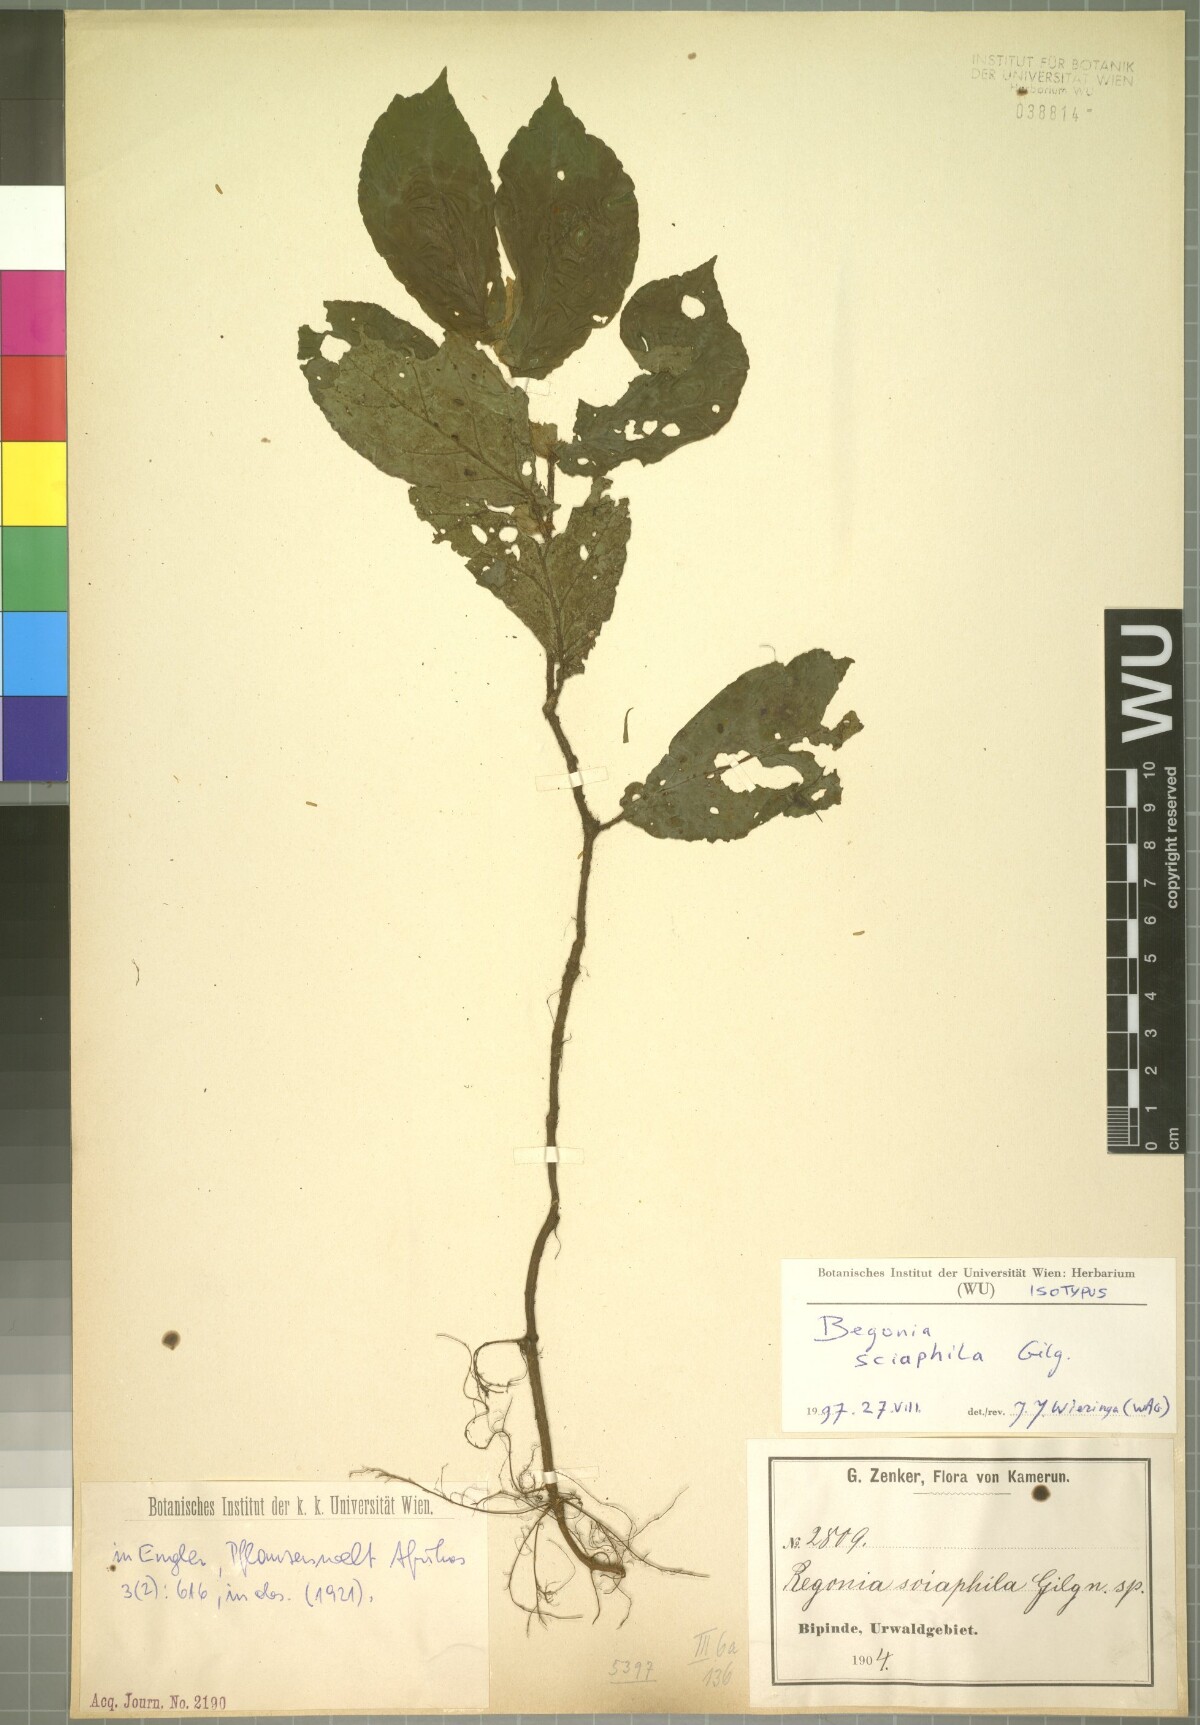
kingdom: Plantae
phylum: Tracheophyta
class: Magnoliopsida
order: Cucurbitales
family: Begoniaceae
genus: Begonia
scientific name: Begonia sciaphila
